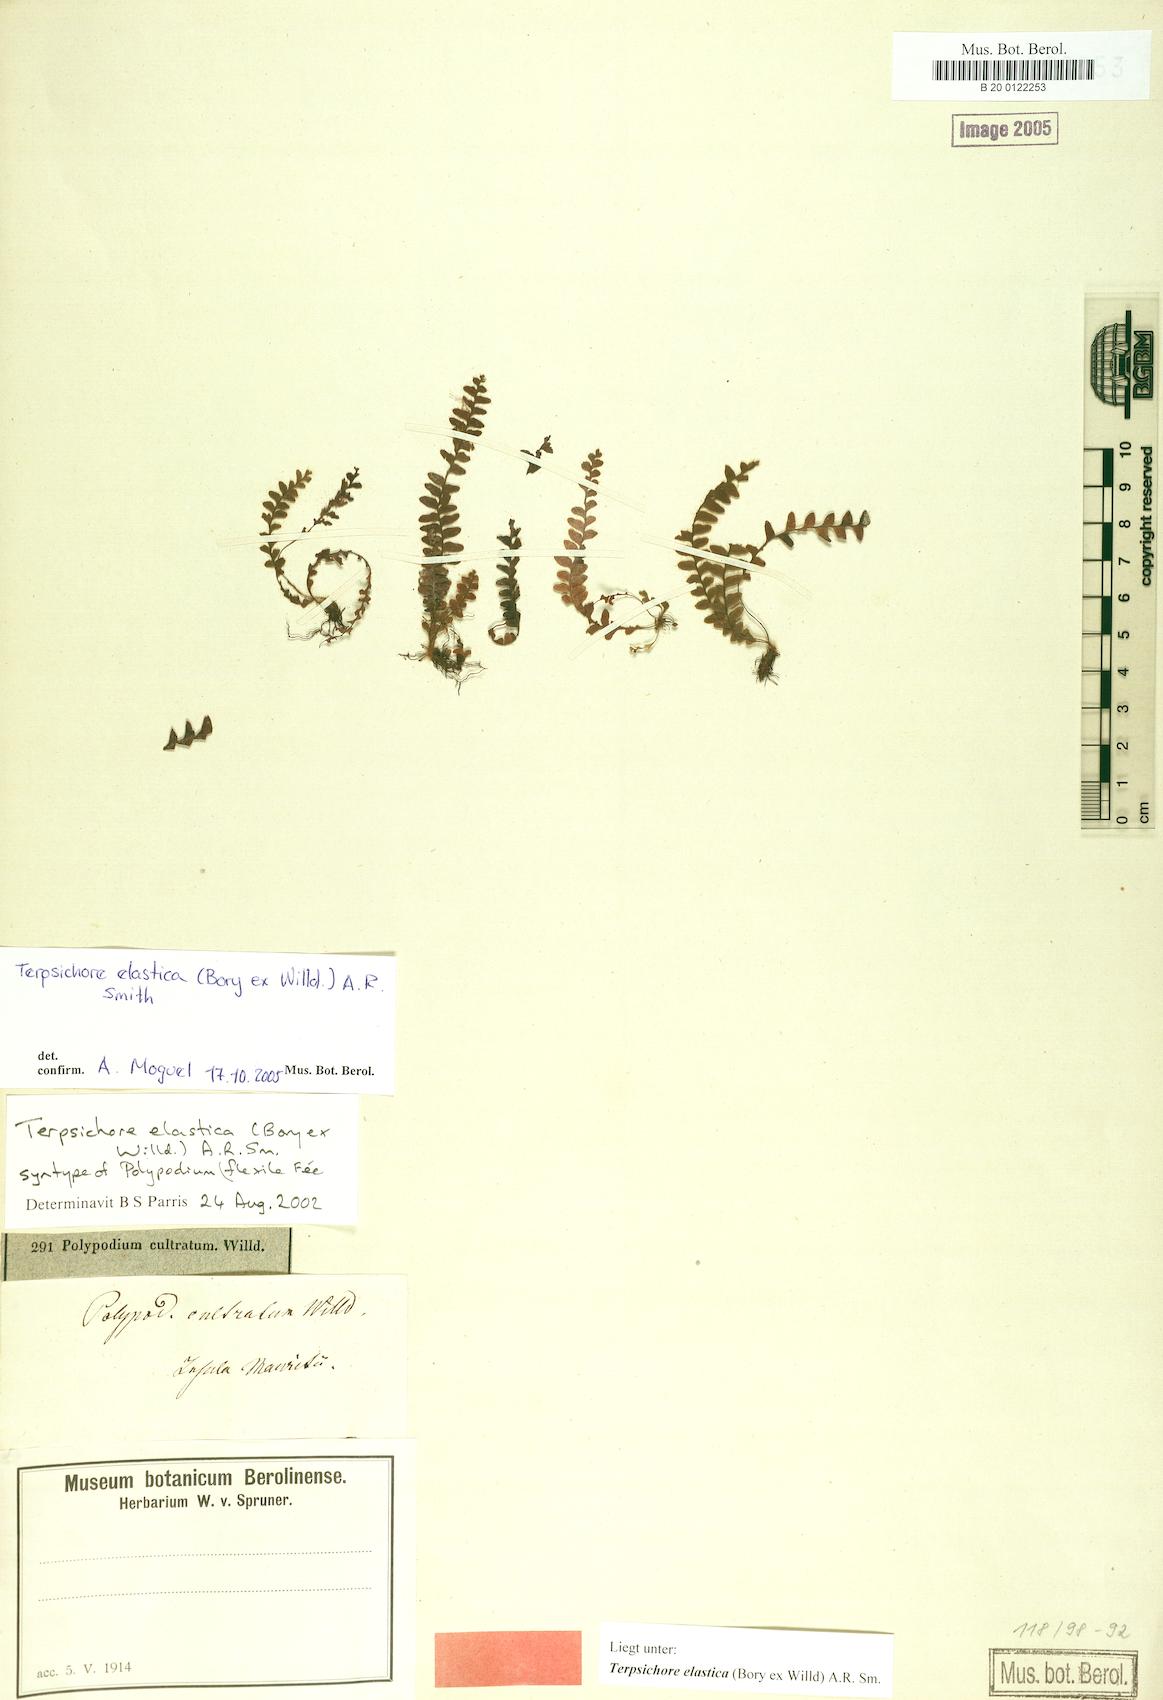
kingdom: Plantae
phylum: Tracheophyta
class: Polypodiopsida
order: Polypodiales
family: Polypodiaceae
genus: Alansmia
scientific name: Alansmia elastica
